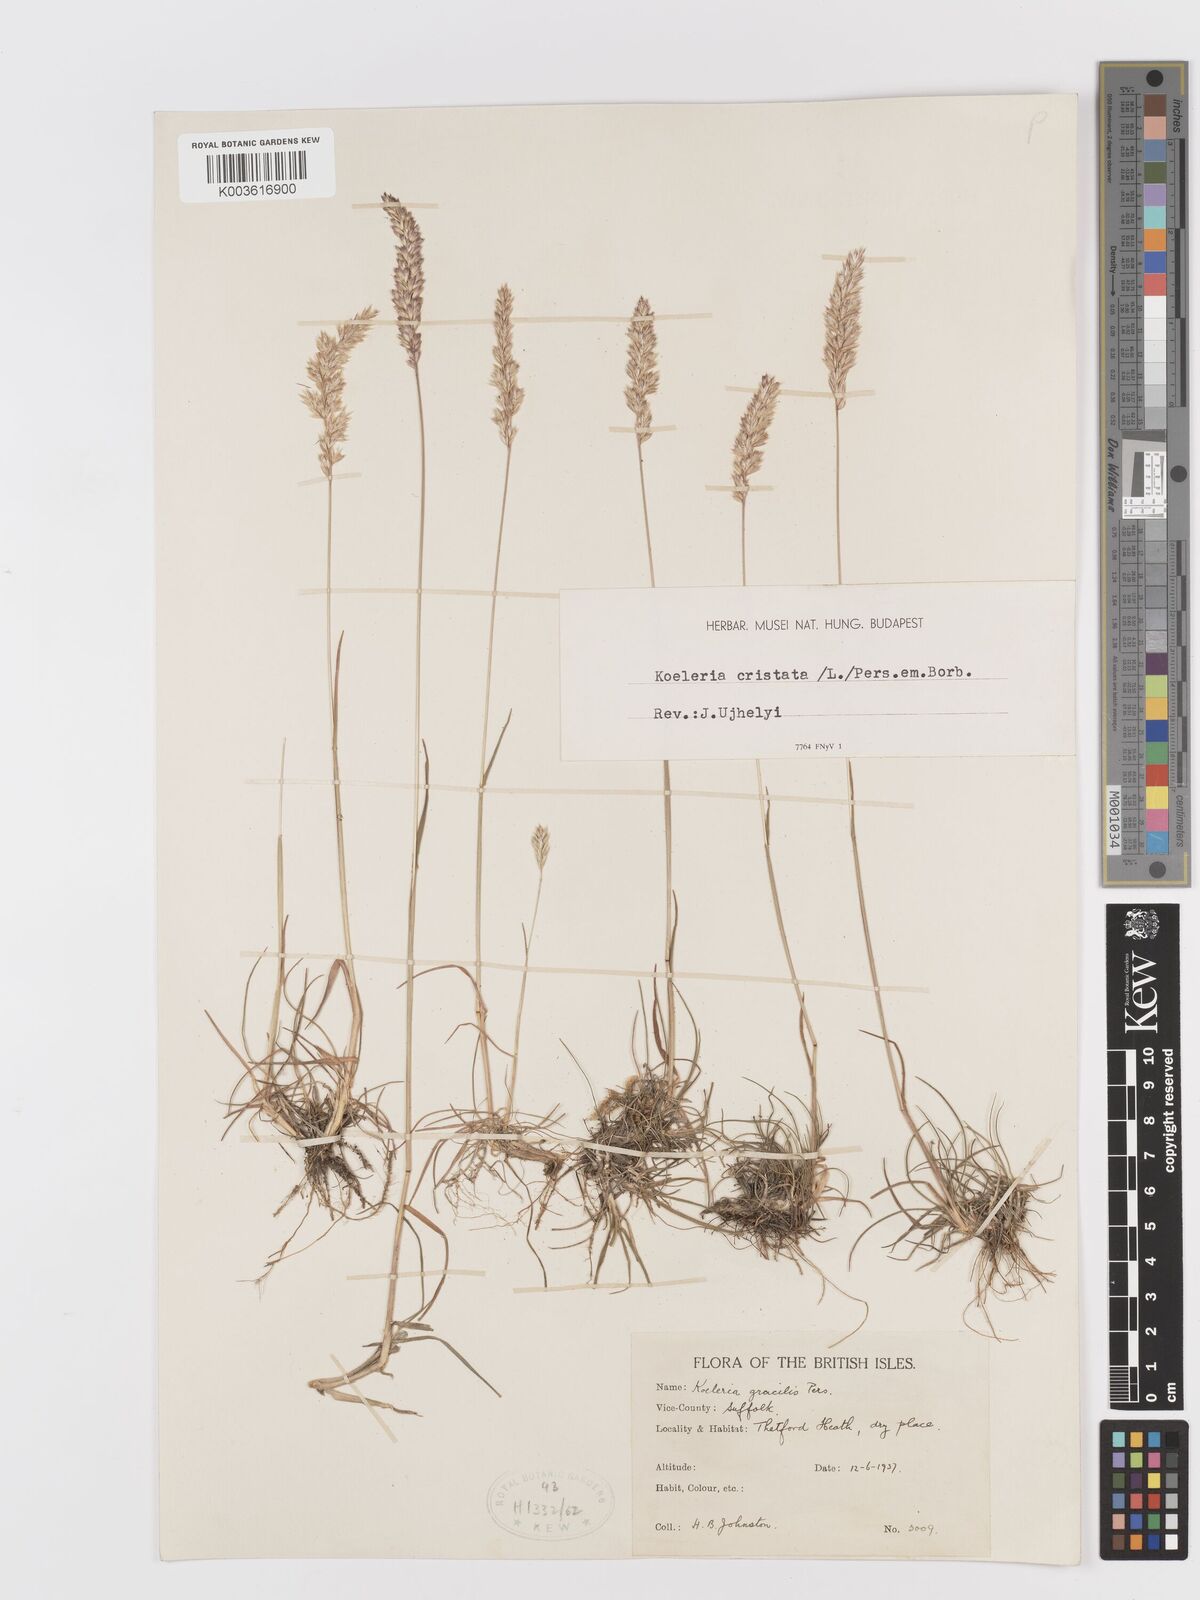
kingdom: Plantae
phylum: Tracheophyta
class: Liliopsida
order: Poales
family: Poaceae
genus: Koeleria
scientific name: Koeleria macrantha
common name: Crested hair-grass
